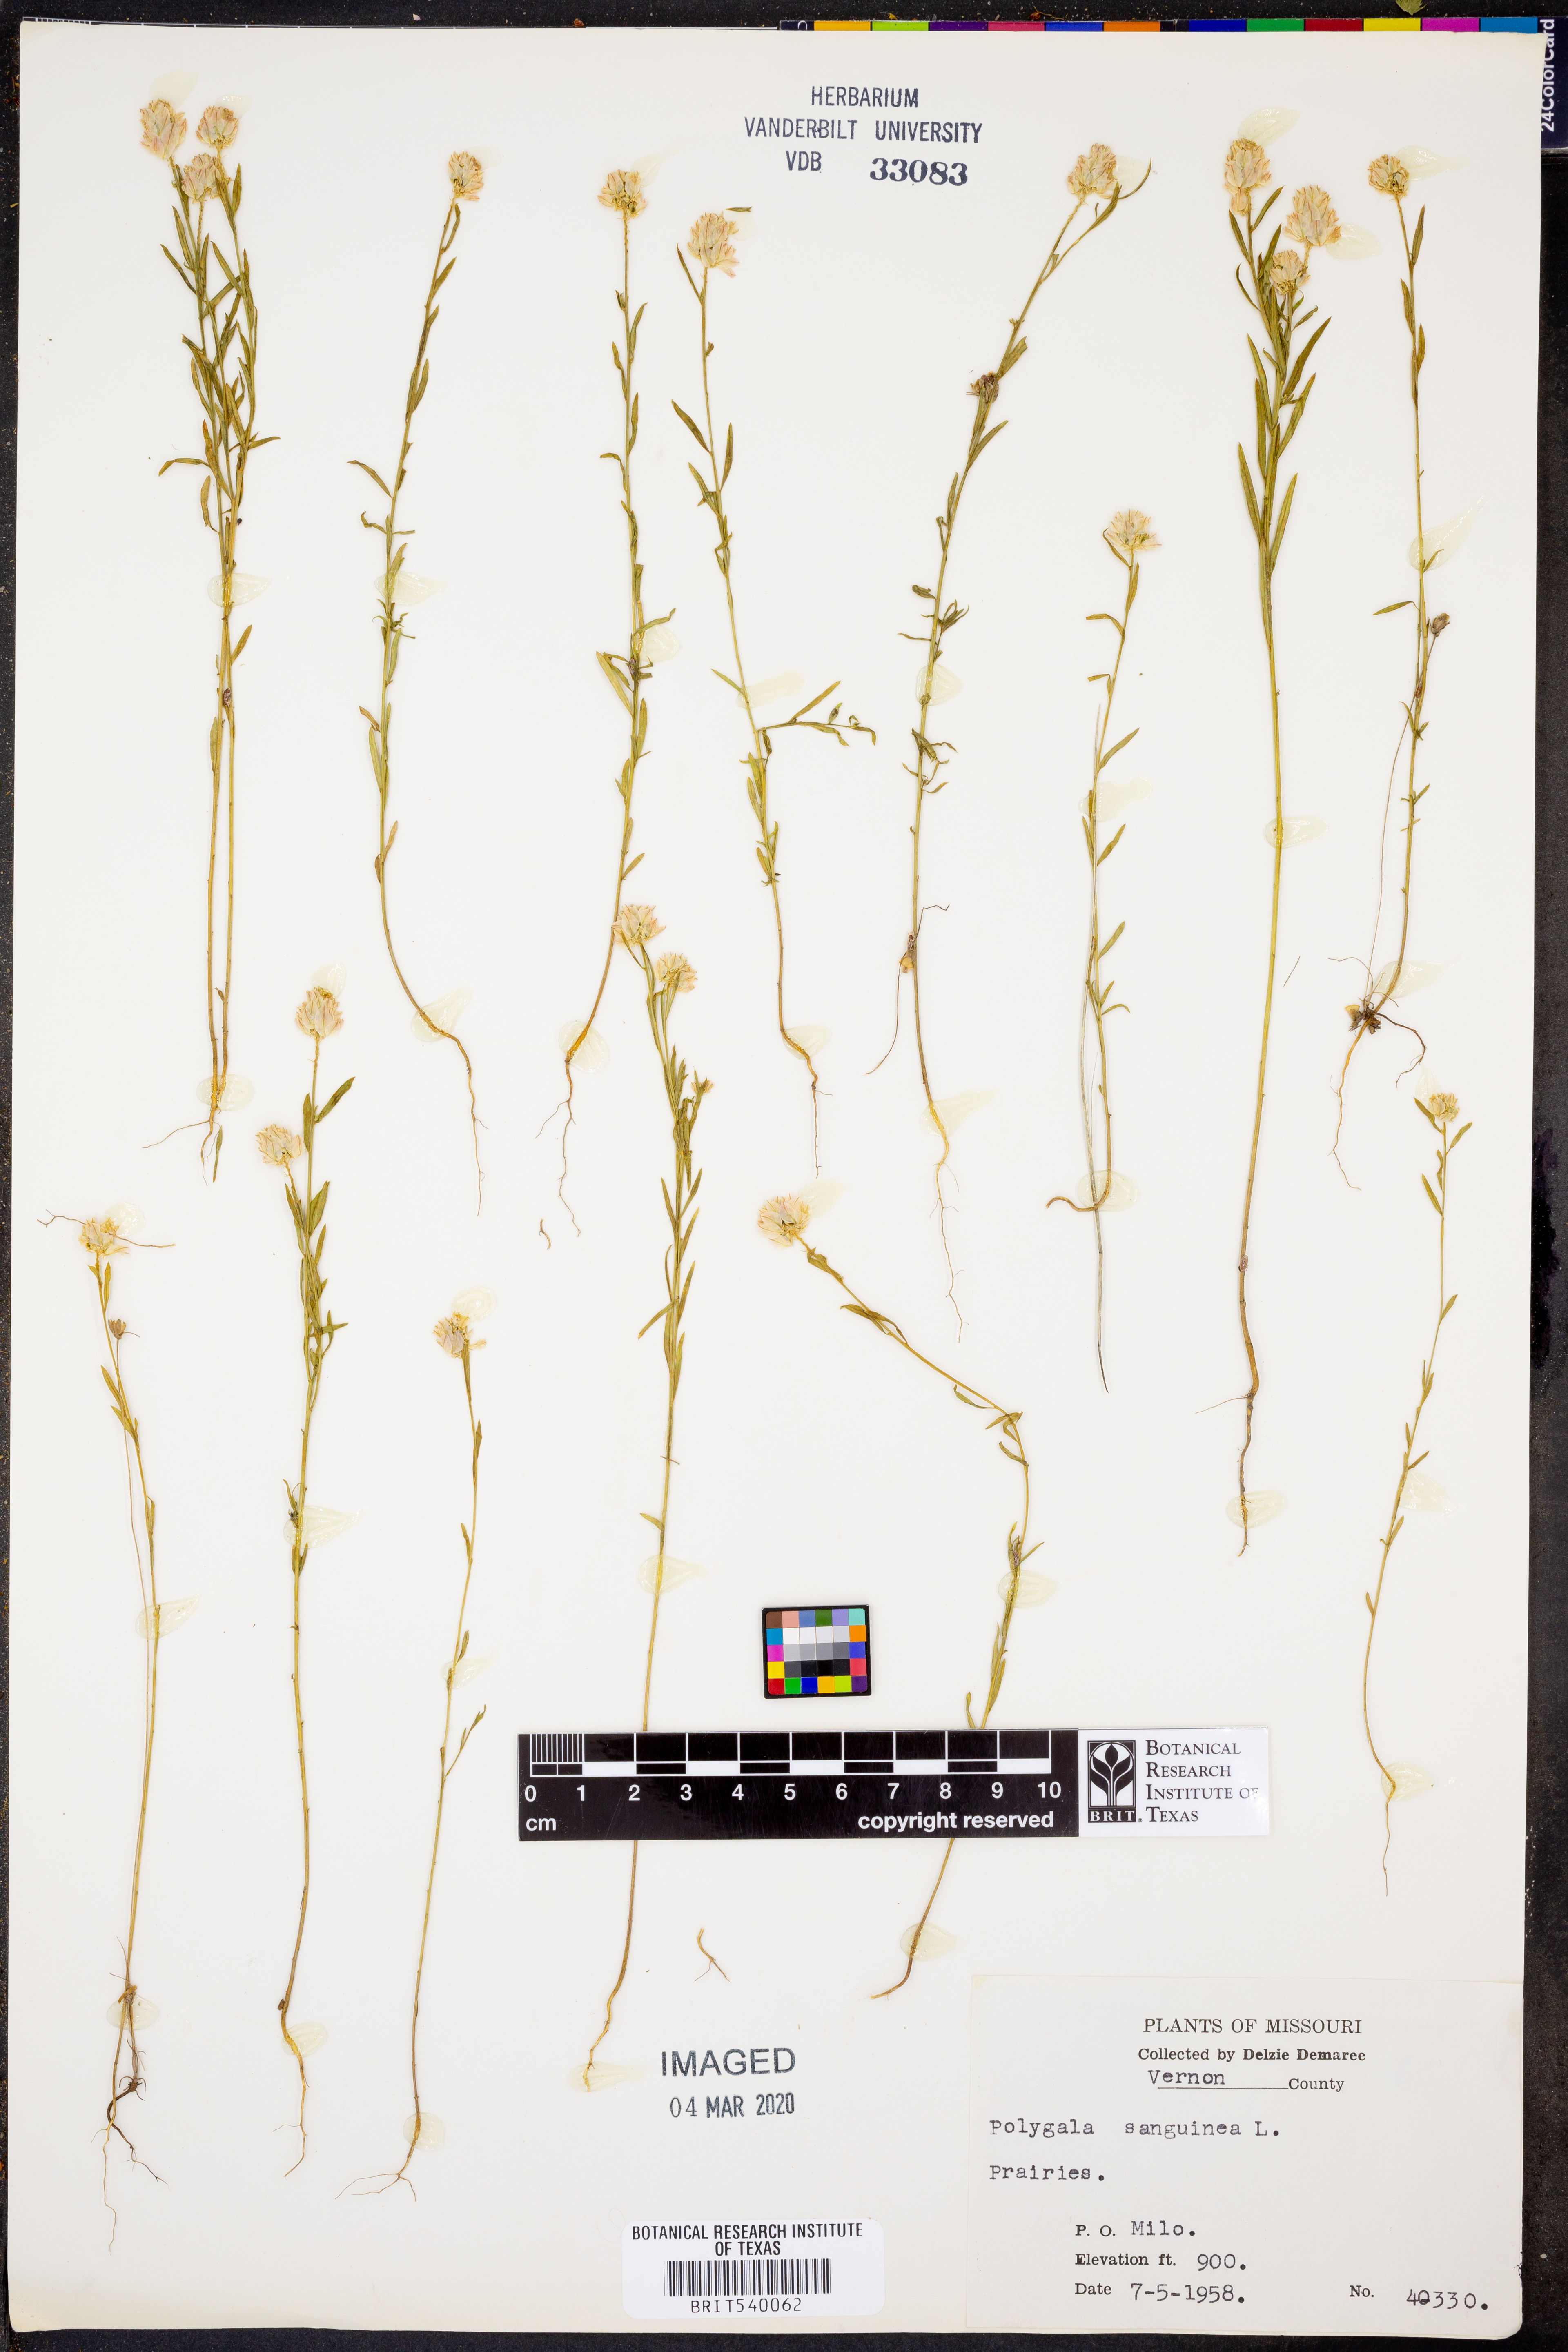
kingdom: Plantae
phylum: Tracheophyta
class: Magnoliopsida
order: Fabales
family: Polygalaceae
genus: Polygala
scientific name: Polygala sanguinea
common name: Blood milkwort
